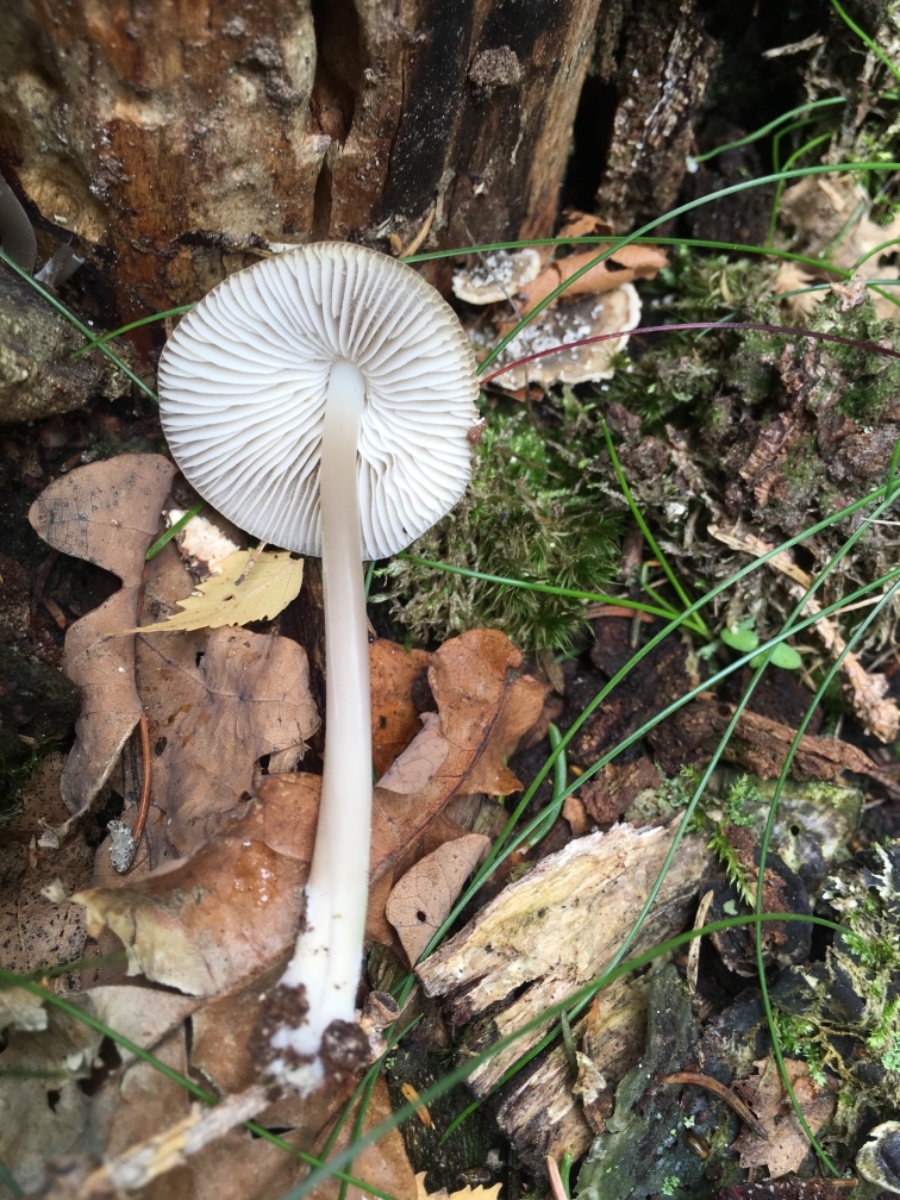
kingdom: Fungi
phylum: Basidiomycota
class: Agaricomycetes
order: Agaricales
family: Mycenaceae
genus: Mycena
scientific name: Mycena galericulata
